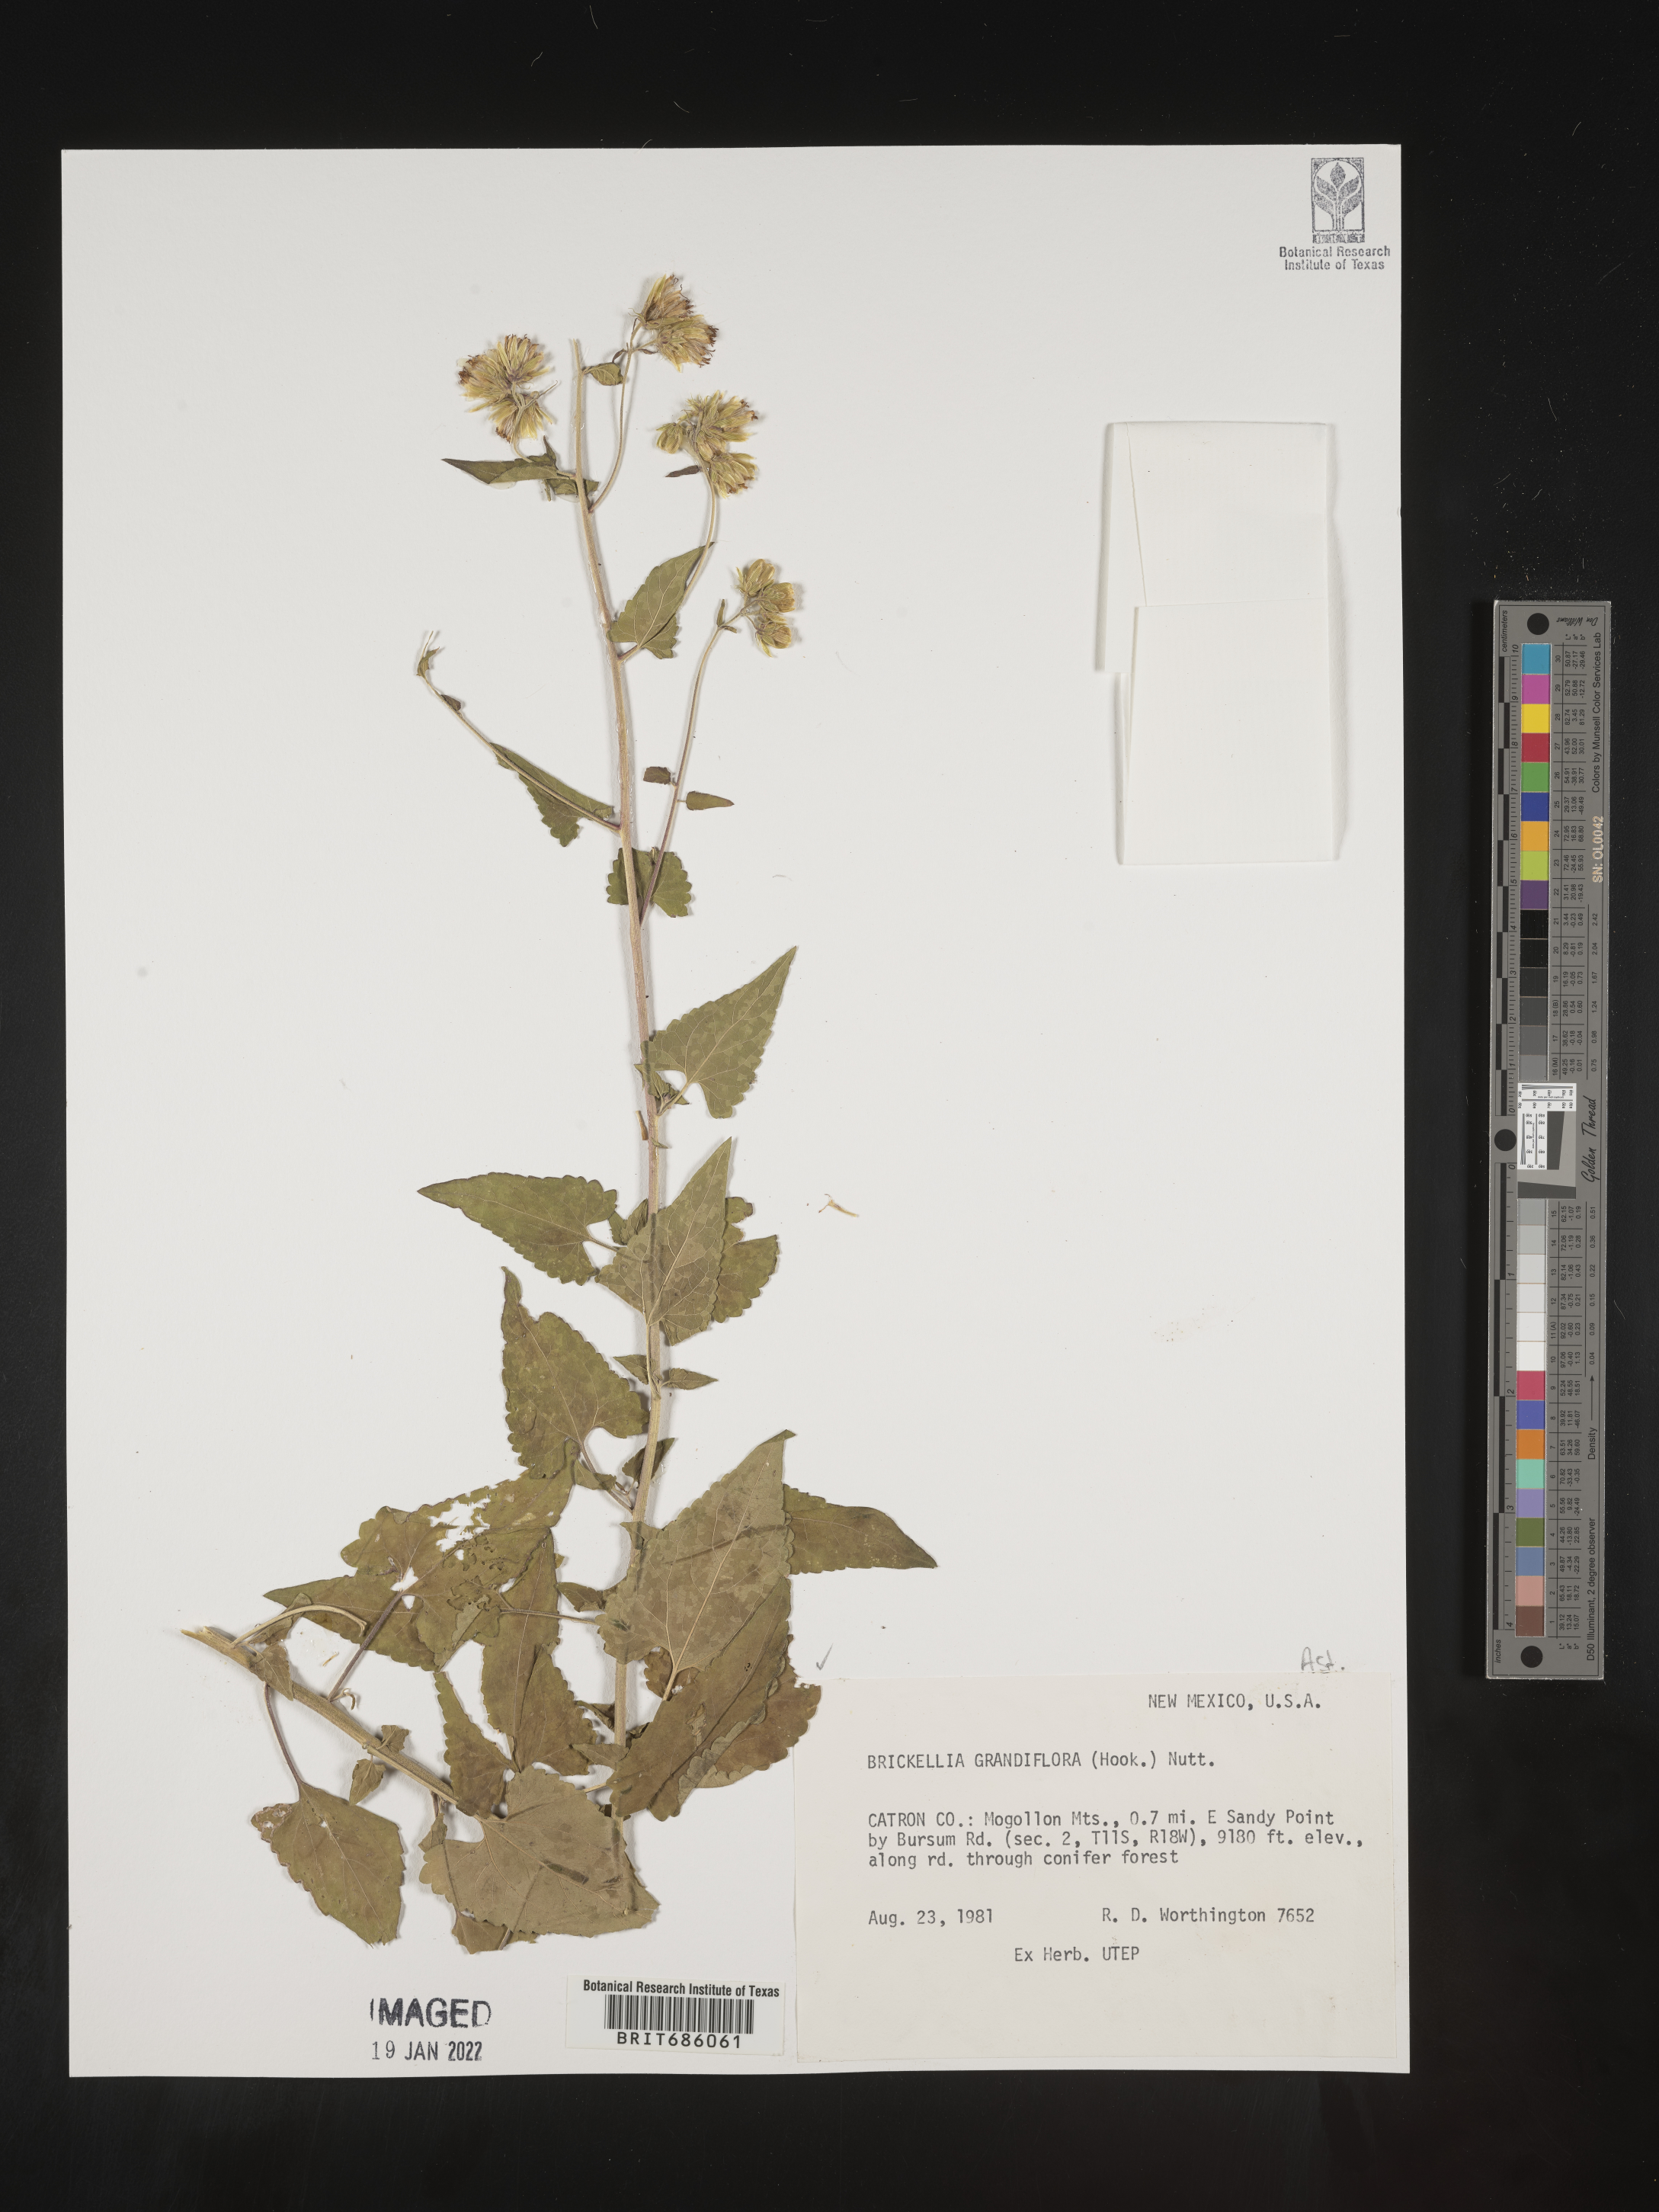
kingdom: Plantae
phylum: Tracheophyta
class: Magnoliopsida
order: Asterales
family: Asteraceae
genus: Brickellia
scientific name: Brickellia grandiflora
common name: Large-flowered brickellia
